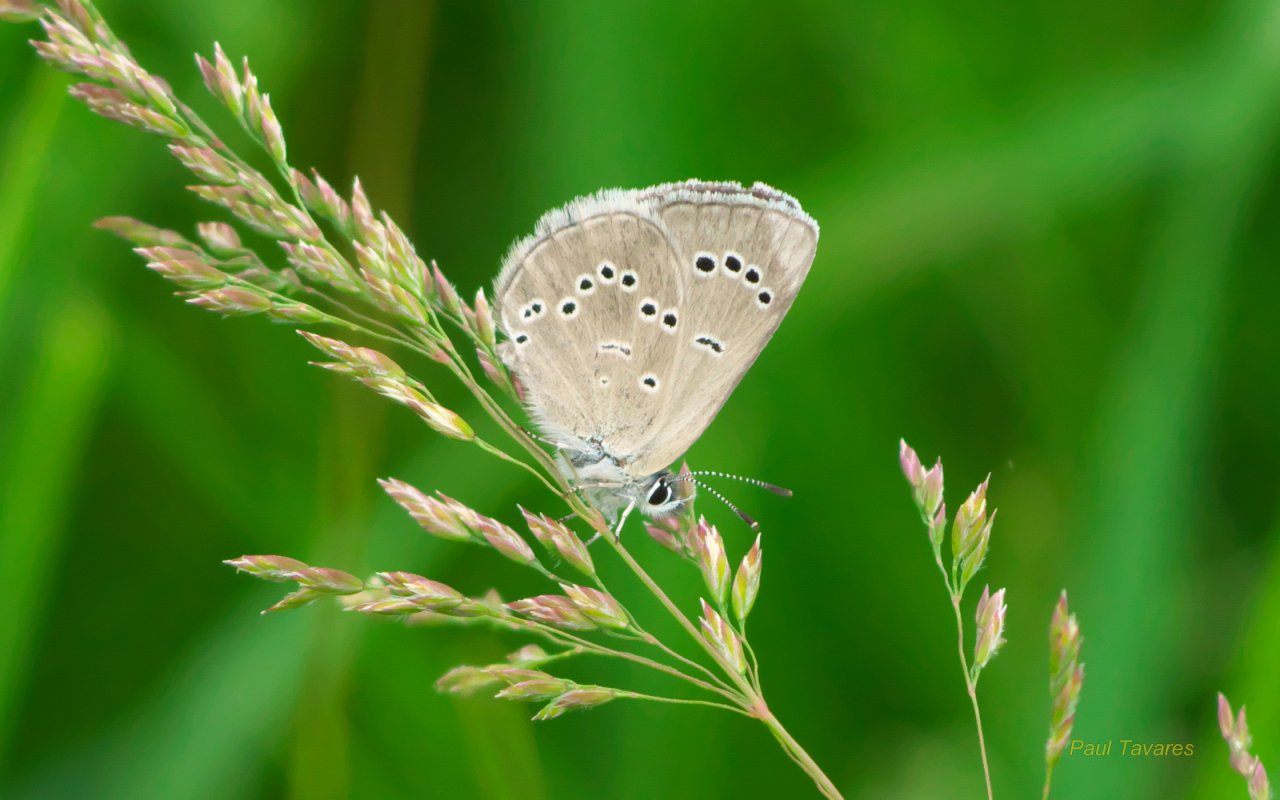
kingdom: Animalia
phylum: Arthropoda
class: Insecta
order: Lepidoptera
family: Lycaenidae
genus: Glaucopsyche
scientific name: Glaucopsyche lygdamus
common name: Silvery Blue
